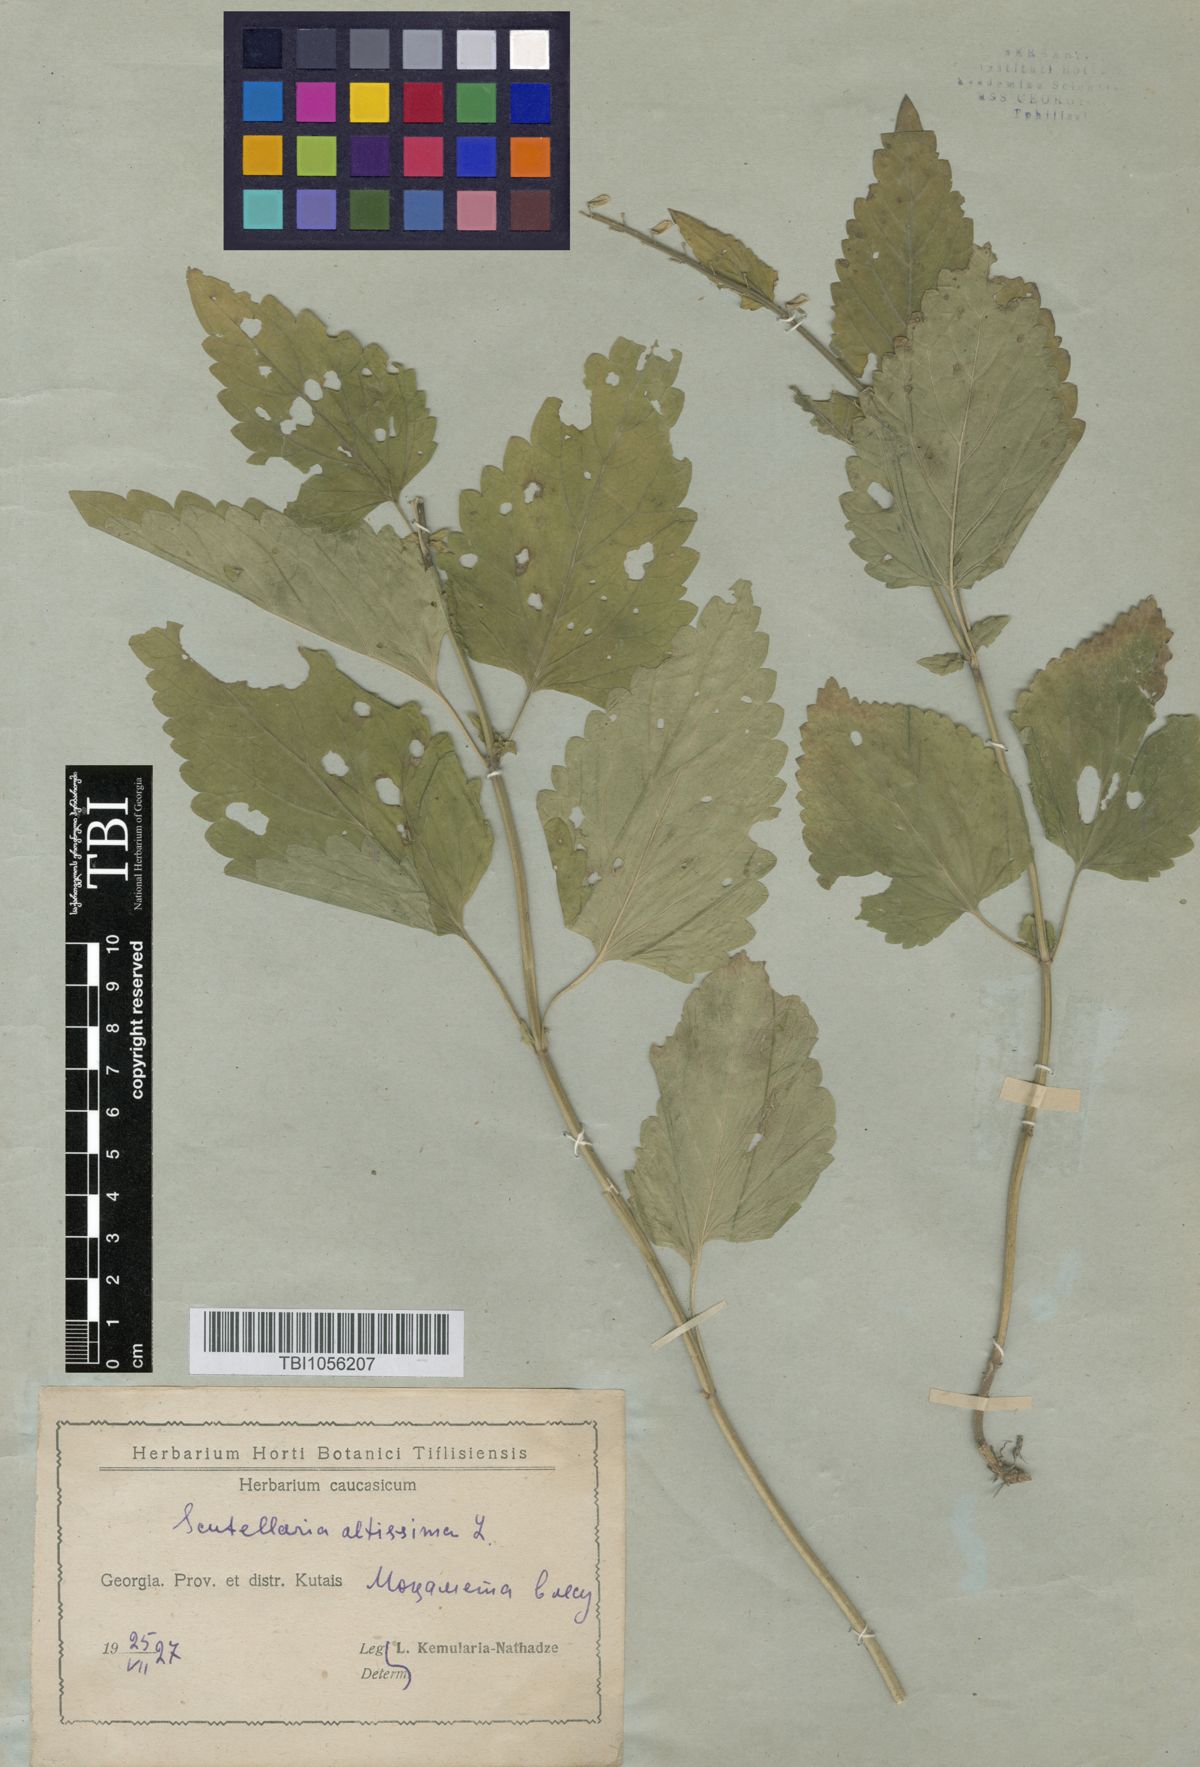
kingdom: Plantae
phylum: Tracheophyta
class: Magnoliopsida
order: Lamiales
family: Lamiaceae
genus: Scutellaria
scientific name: Scutellaria altissima
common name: Somerset skullcap
